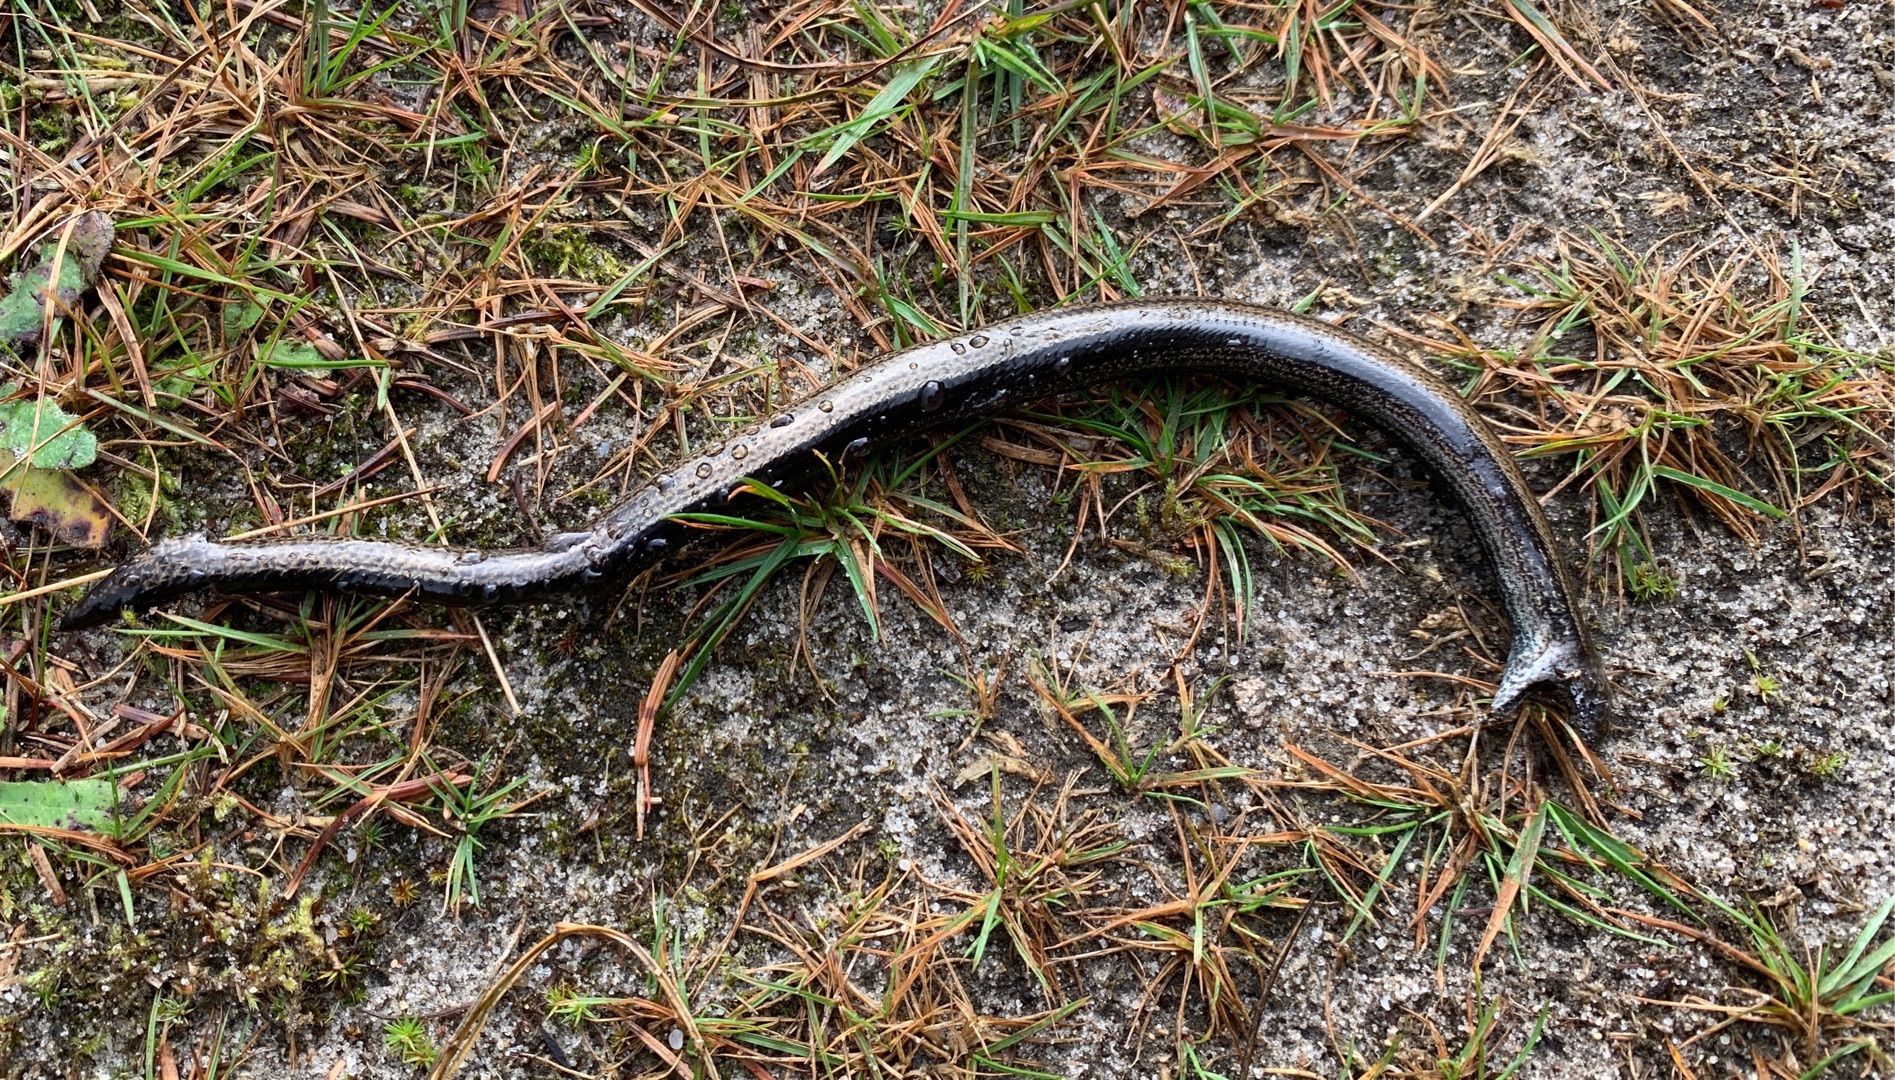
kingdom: Animalia
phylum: Chordata
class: Squamata
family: Anguidae
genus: Anguis
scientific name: Anguis fragilis
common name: Stålorm
